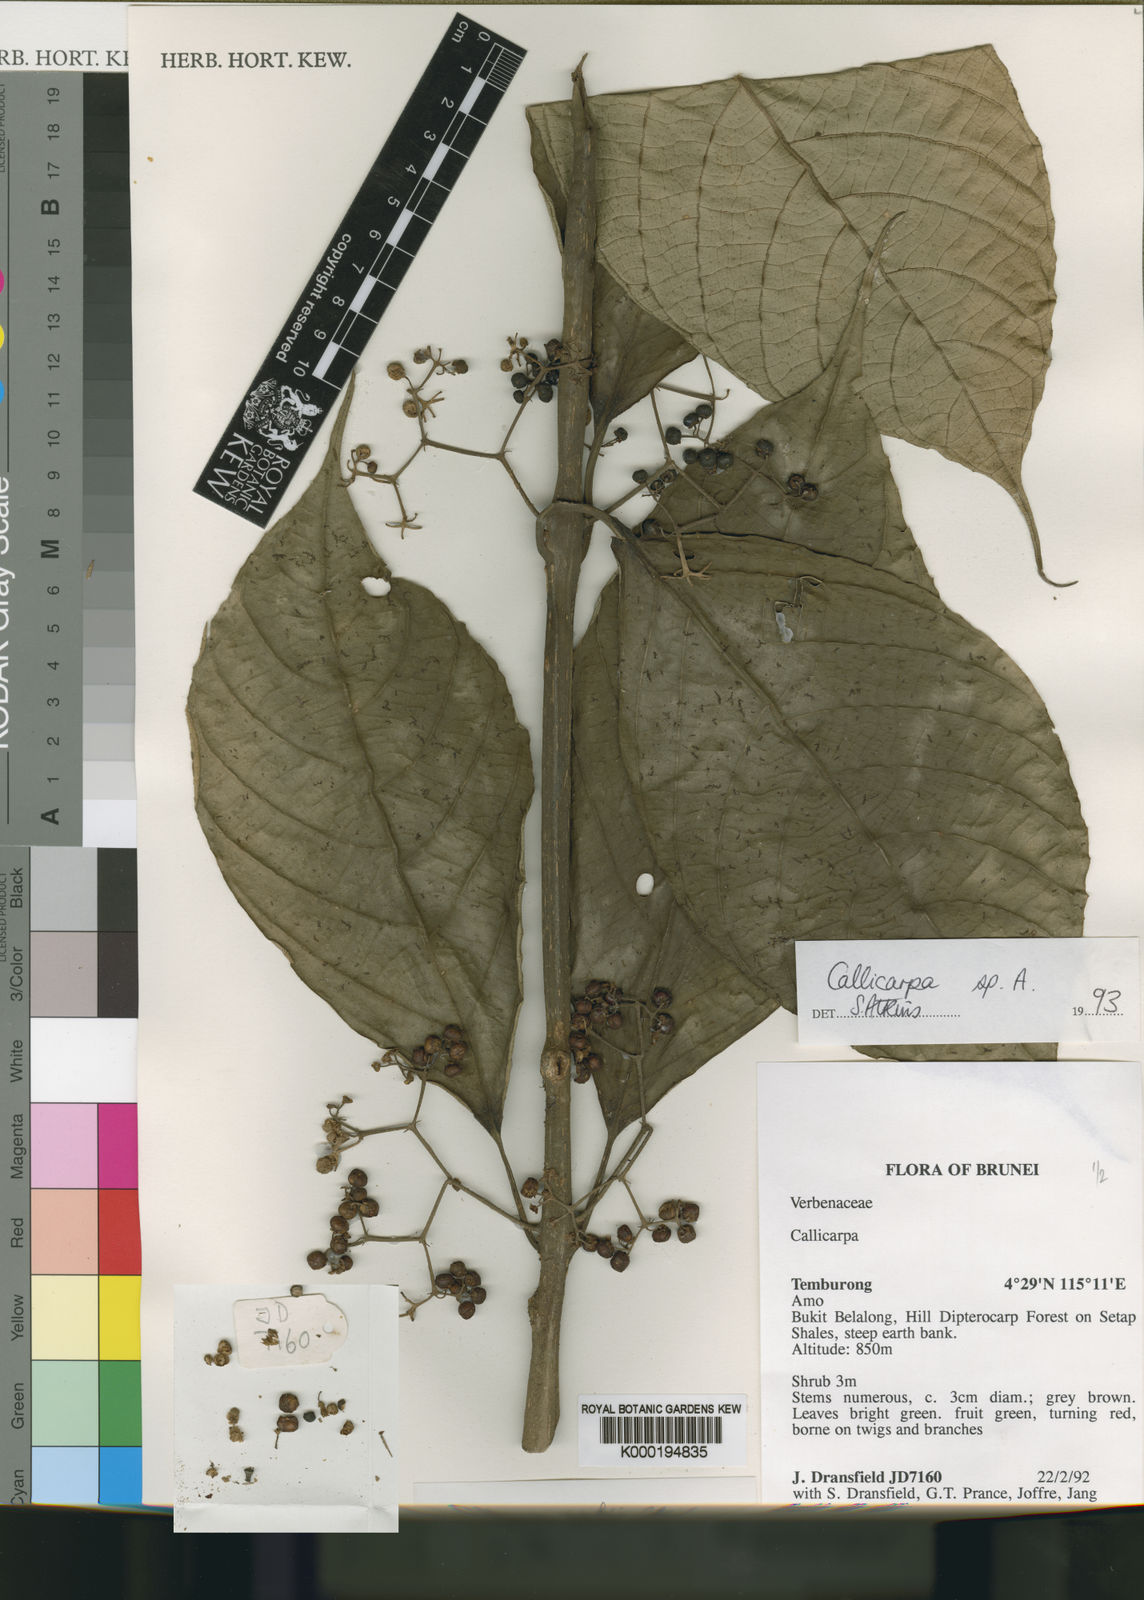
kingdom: Plantae
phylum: Tracheophyta
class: Magnoliopsida
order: Lamiales
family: Lamiaceae
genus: Callicarpa
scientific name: Callicarpa glabrifolia
